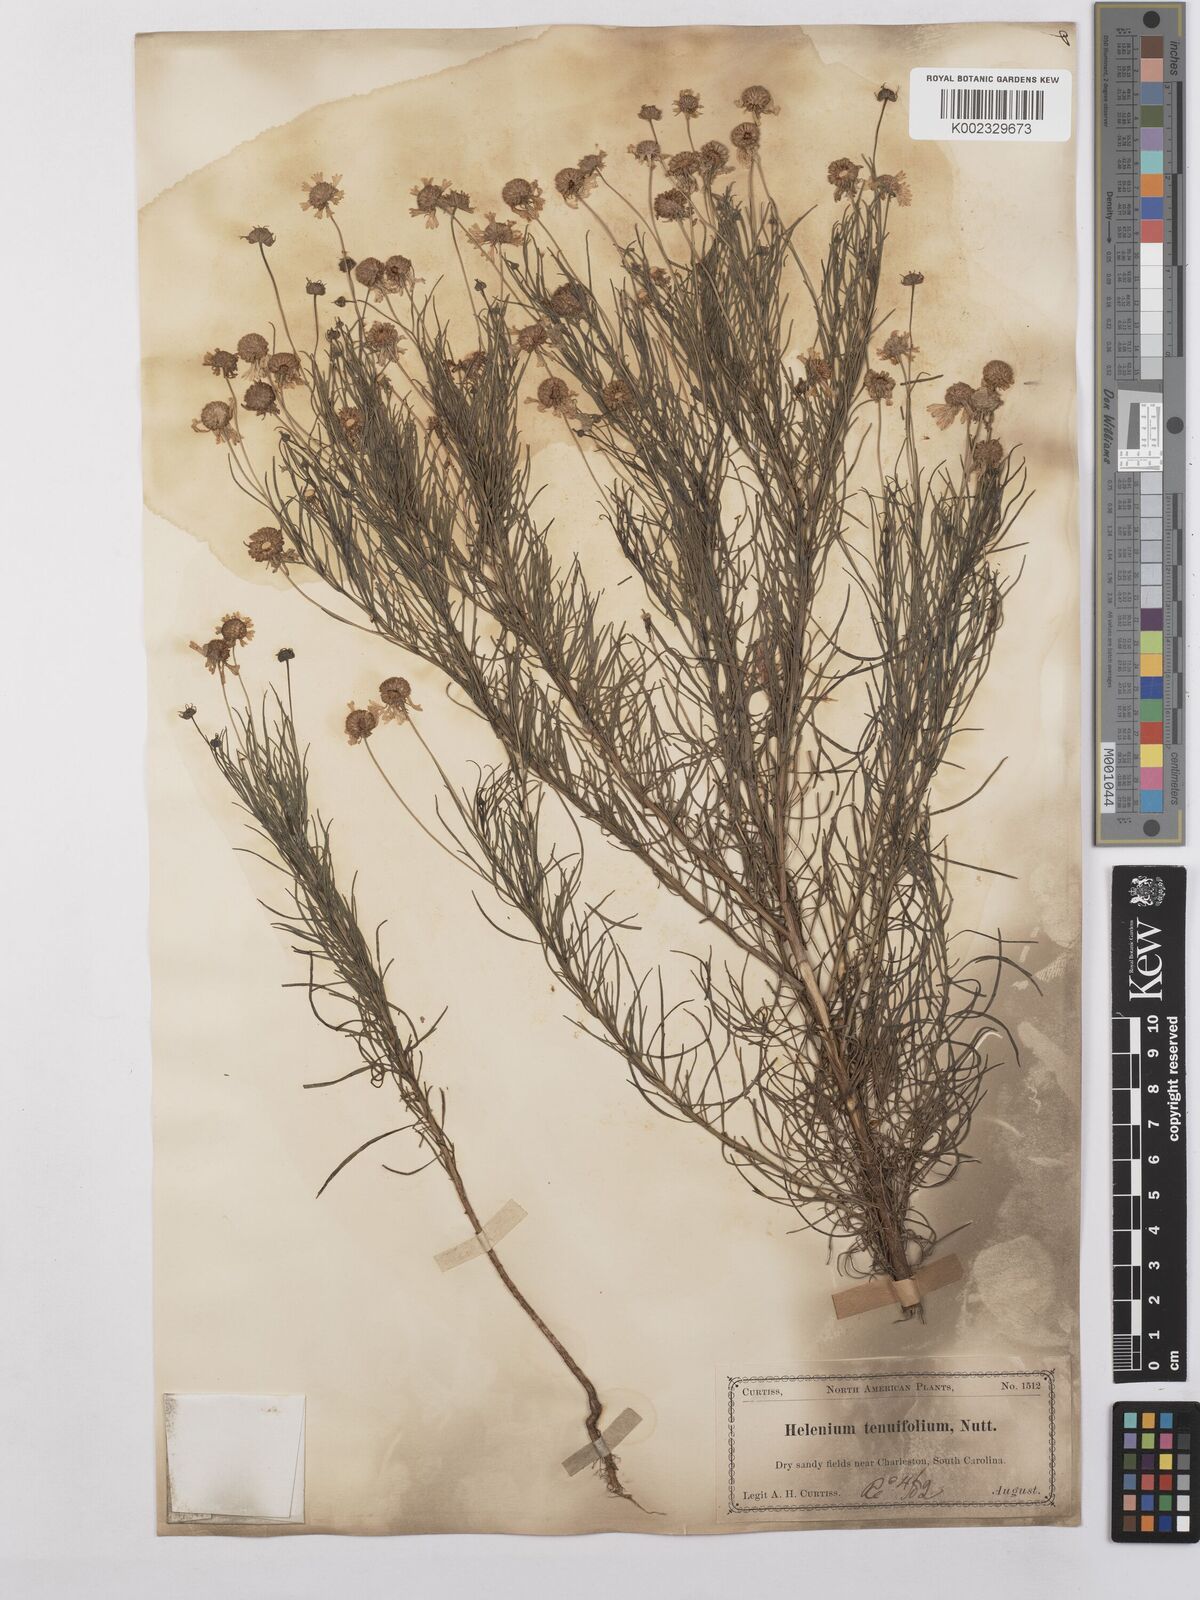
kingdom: Plantae
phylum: Tracheophyta
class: Magnoliopsida
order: Asterales
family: Asteraceae
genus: Helenium
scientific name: Helenium amarum
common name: Bitter sneezeweed
